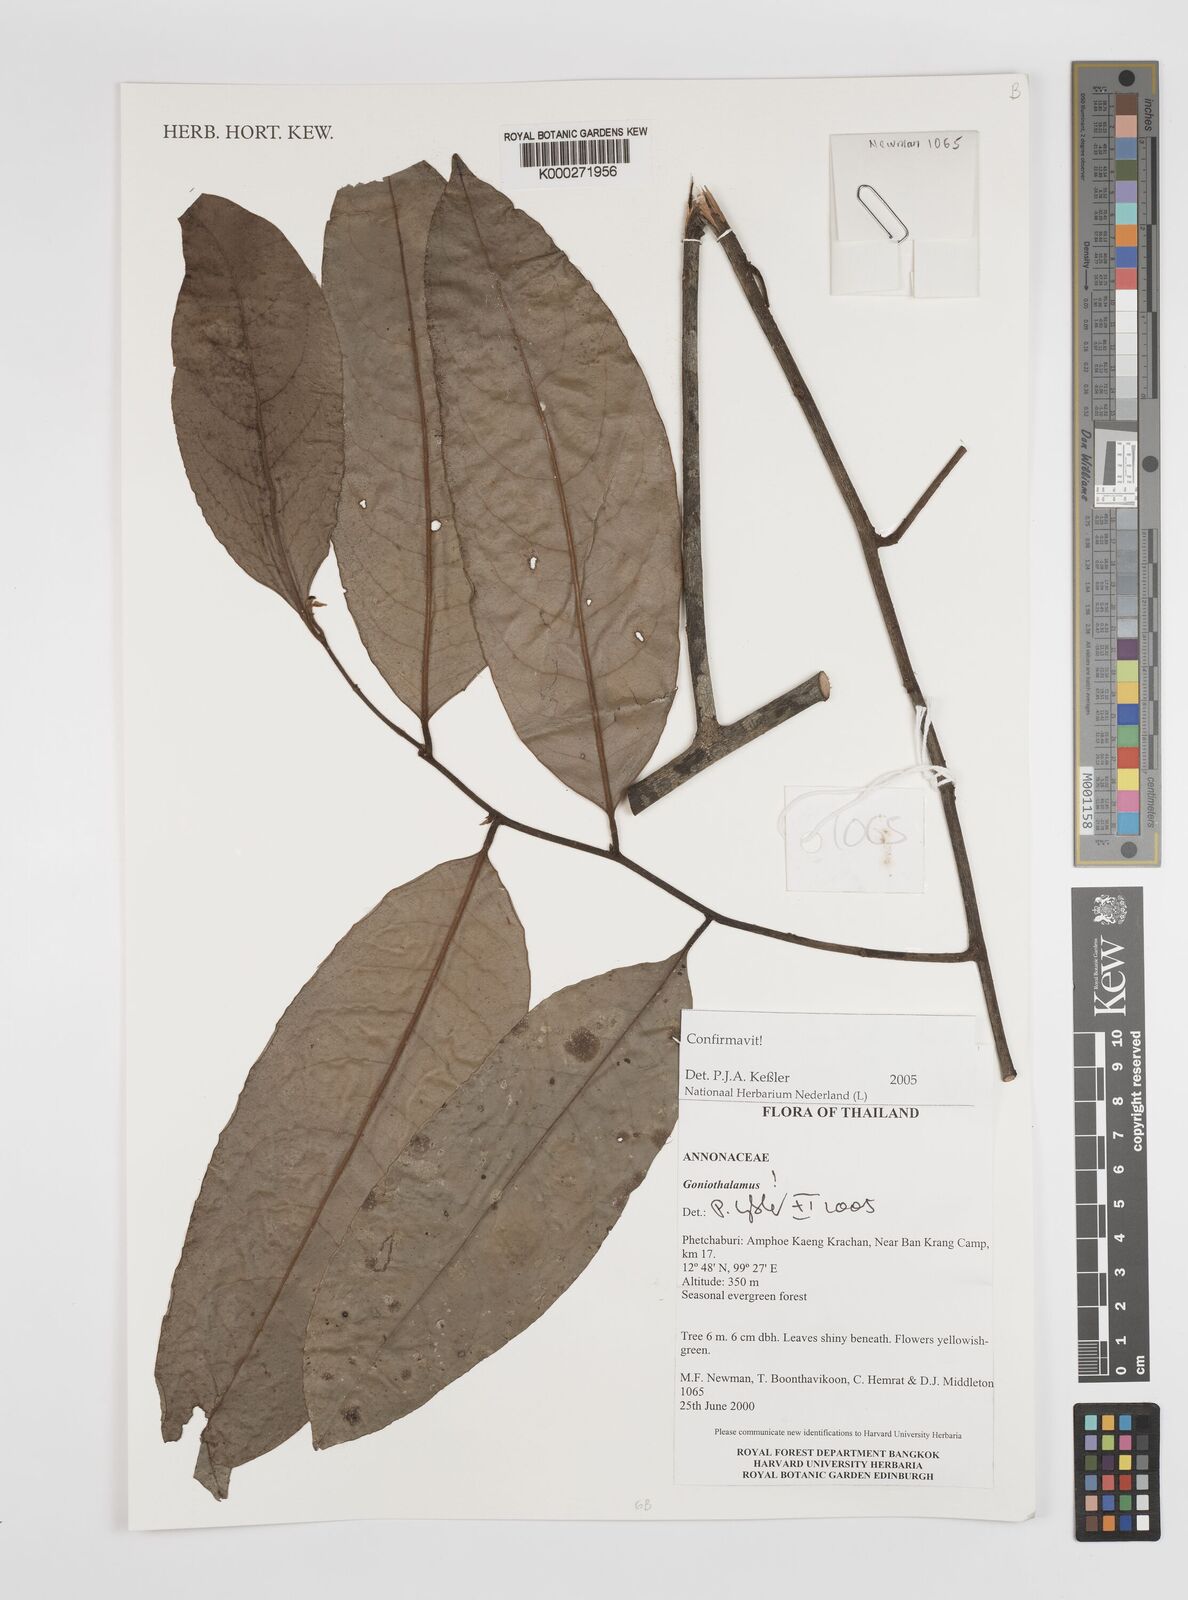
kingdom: Plantae
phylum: Tracheophyta
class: Magnoliopsida
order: Magnoliales
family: Annonaceae
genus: Goniothalamus
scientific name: Goniothalamus
